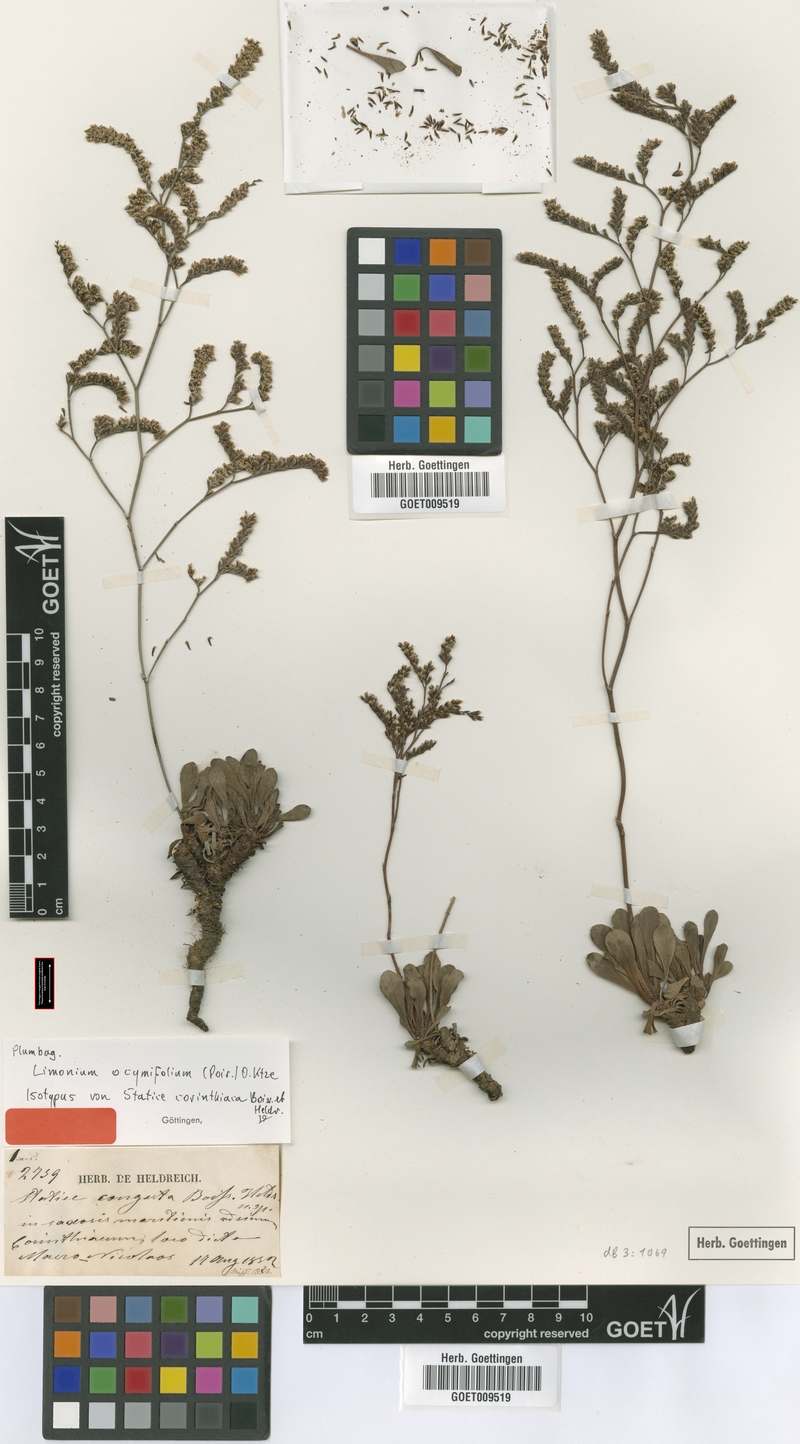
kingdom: Plantae
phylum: Tracheophyta
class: Magnoliopsida
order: Caryophyllales
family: Plumbaginaceae
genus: Limonium
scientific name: Limonium ocymifolium
